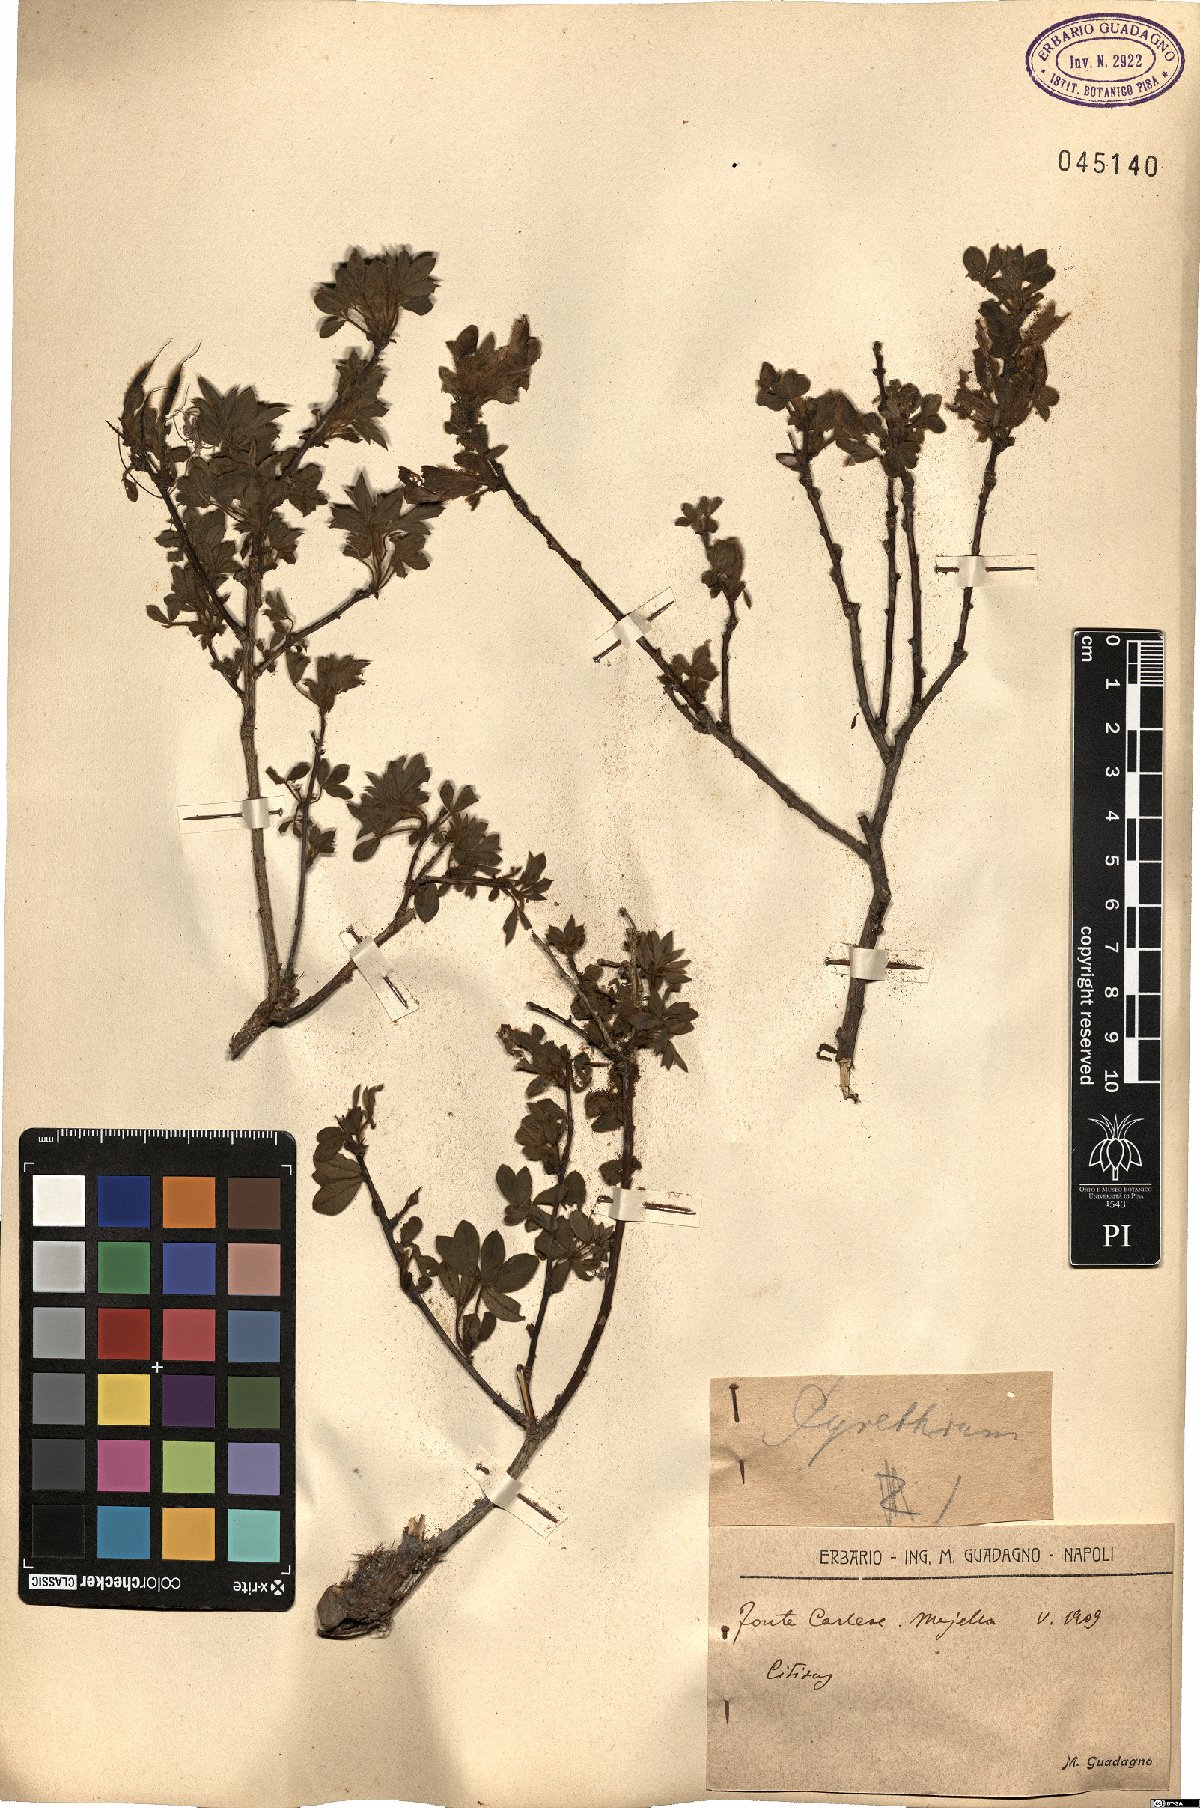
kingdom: Plantae
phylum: Tracheophyta
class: Magnoliopsida
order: Fabales
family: Fabaceae
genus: Cytisus
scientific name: Cytisus
